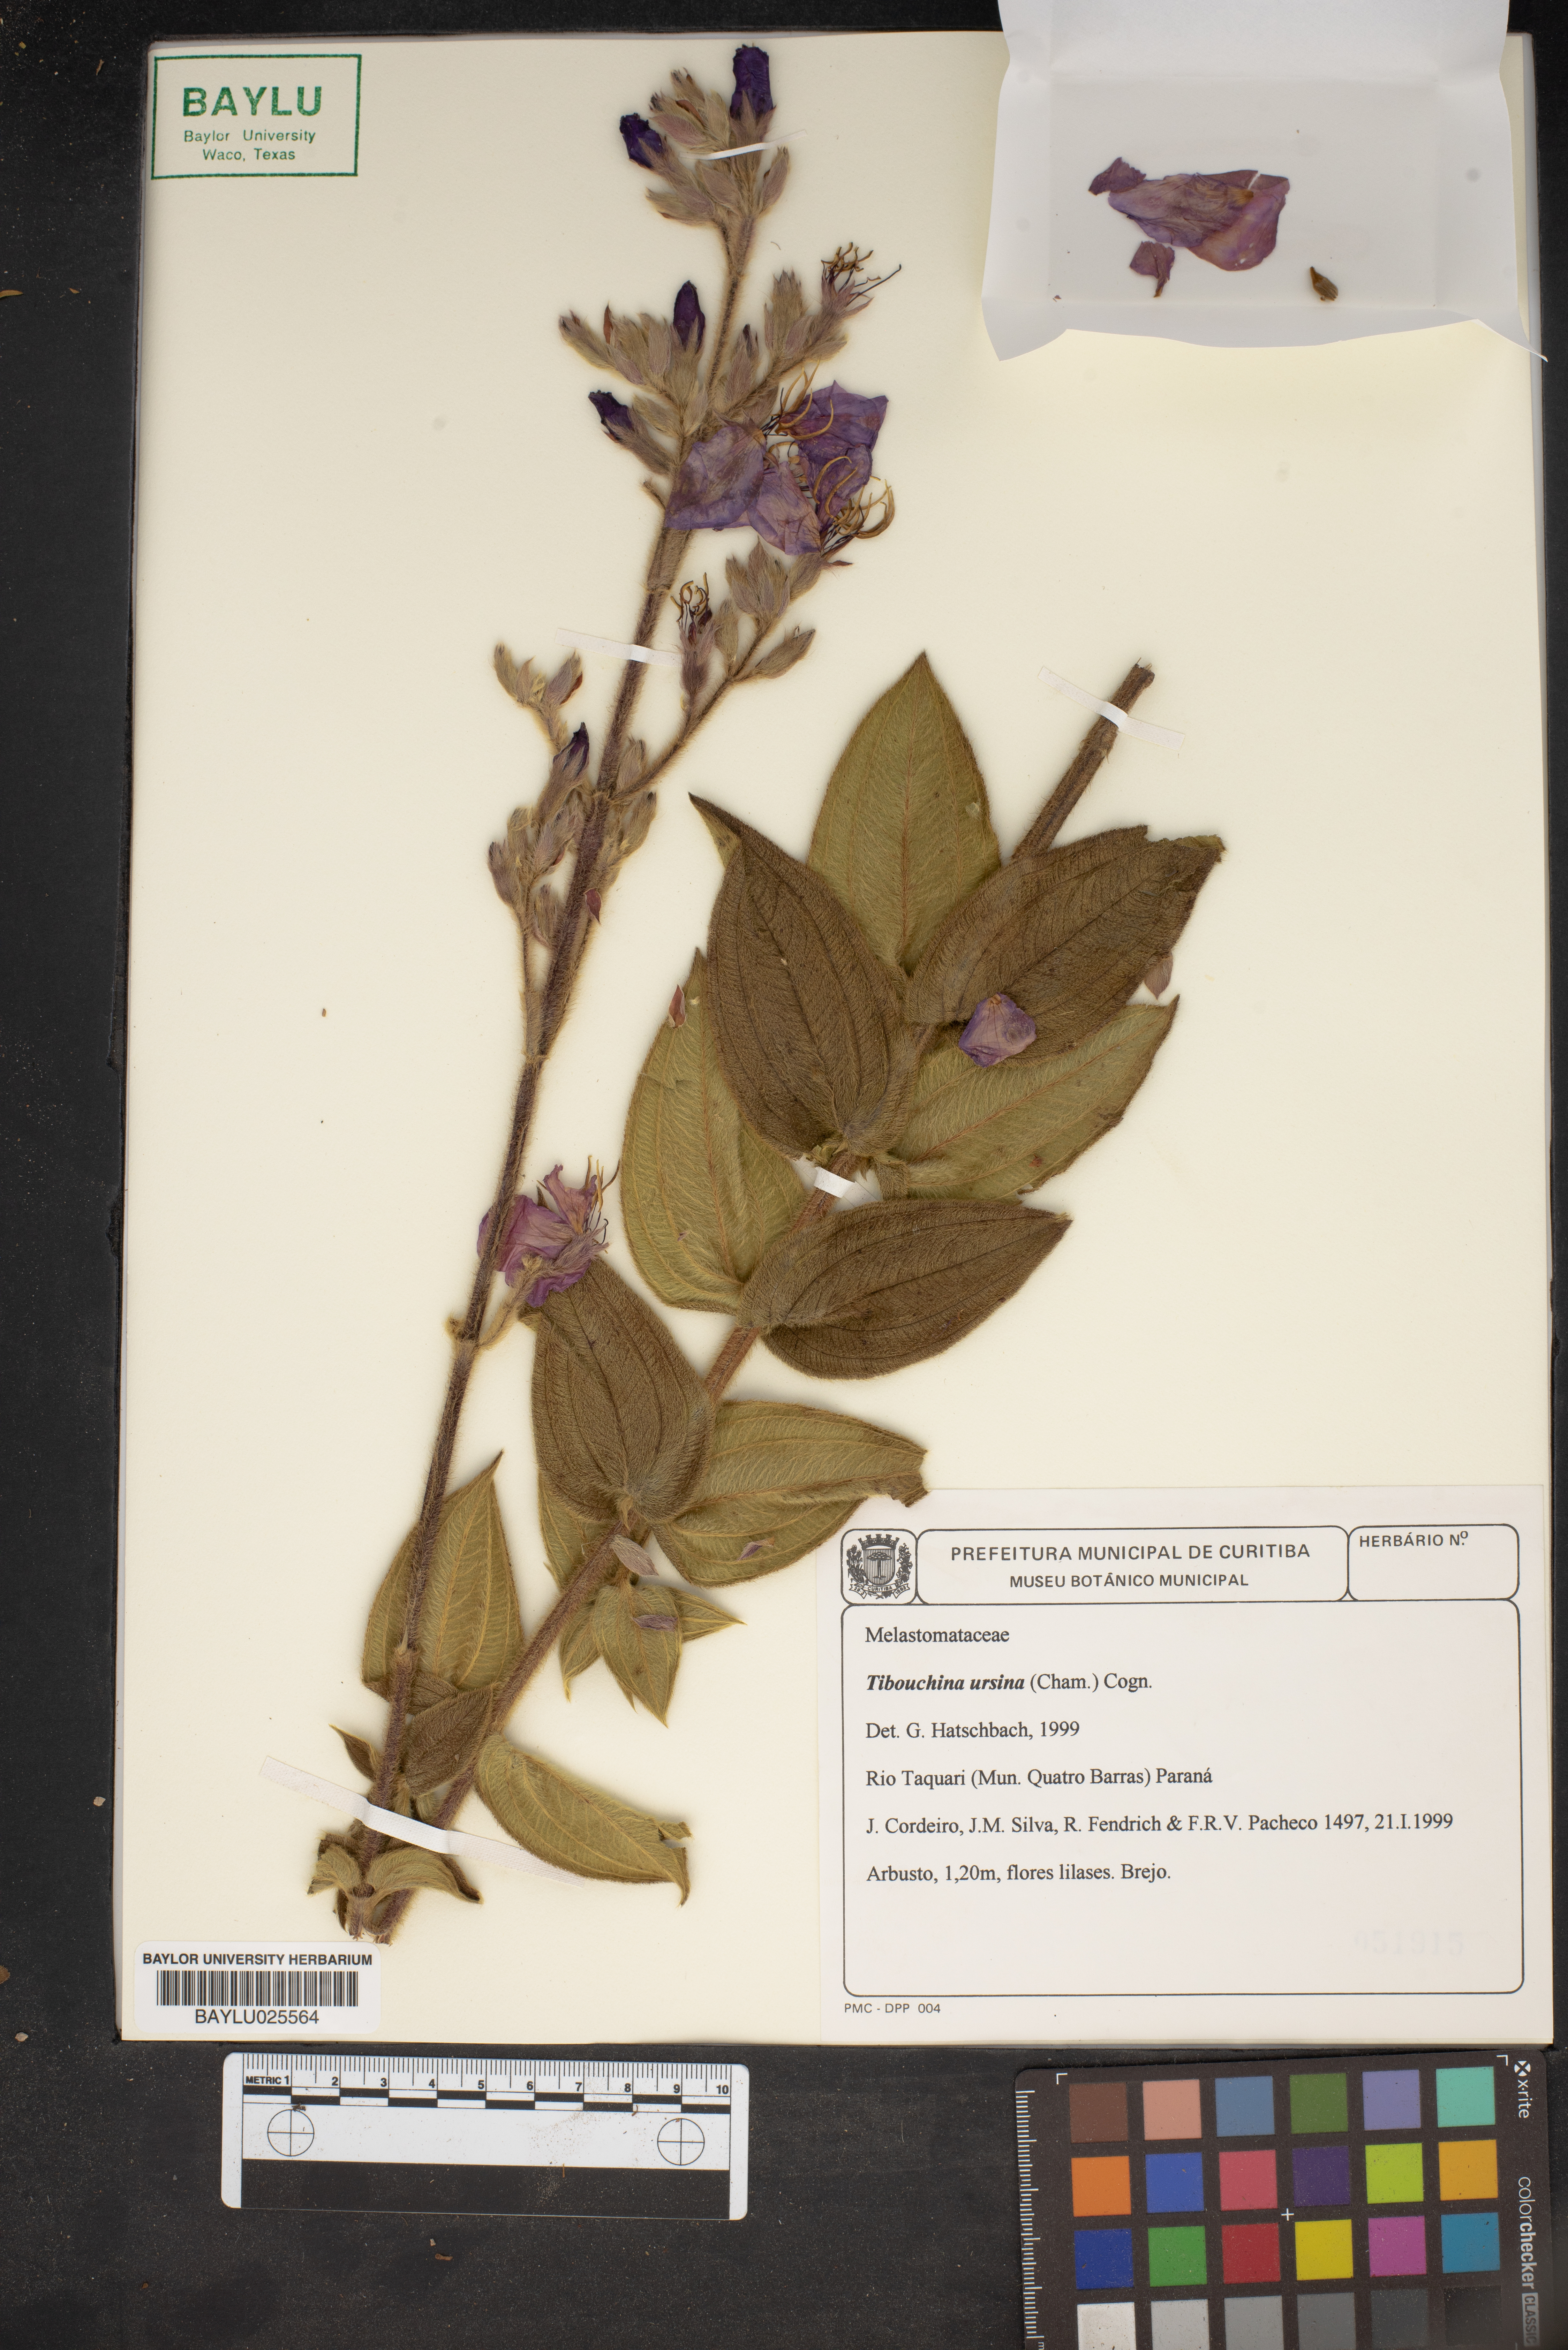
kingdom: Plantae
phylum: Tracheophyta
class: Magnoliopsida
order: Myrtales
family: Melastomataceae
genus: Pleroma
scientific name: Pleroma ursinum
